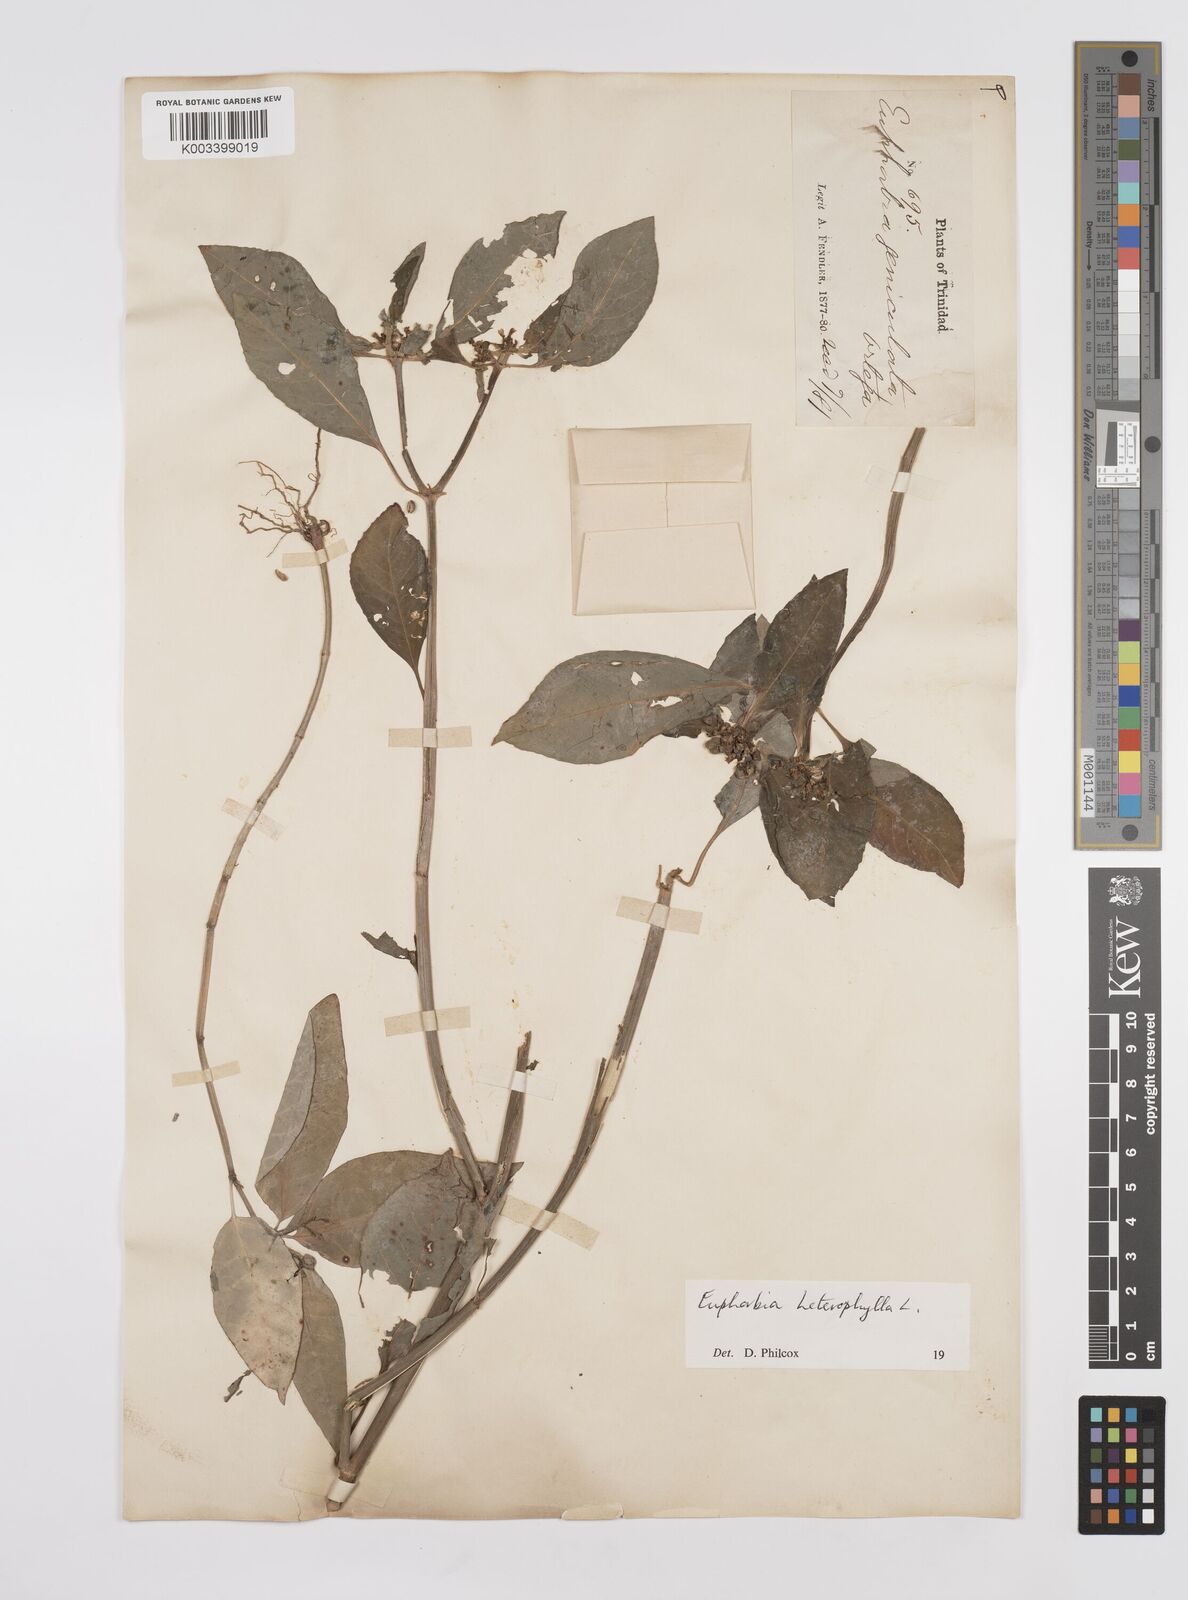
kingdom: Plantae
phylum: Tracheophyta
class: Magnoliopsida
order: Malpighiales
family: Euphorbiaceae
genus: Euphorbia
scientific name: Euphorbia heterophylla
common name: Mexican fireplant
